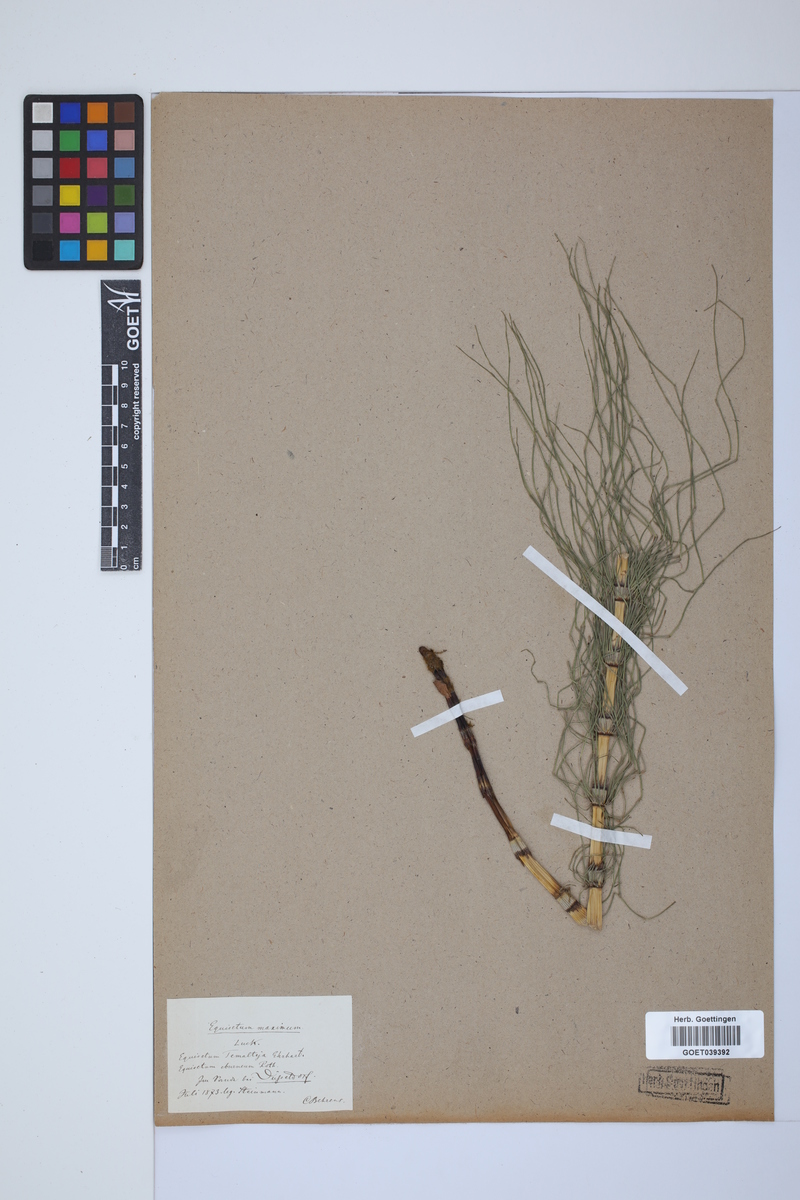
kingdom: Plantae
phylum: Tracheophyta
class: Polypodiopsida
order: Equisetales
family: Equisetaceae
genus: Equisetum
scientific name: Equisetum telmateia
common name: Great horsetail
